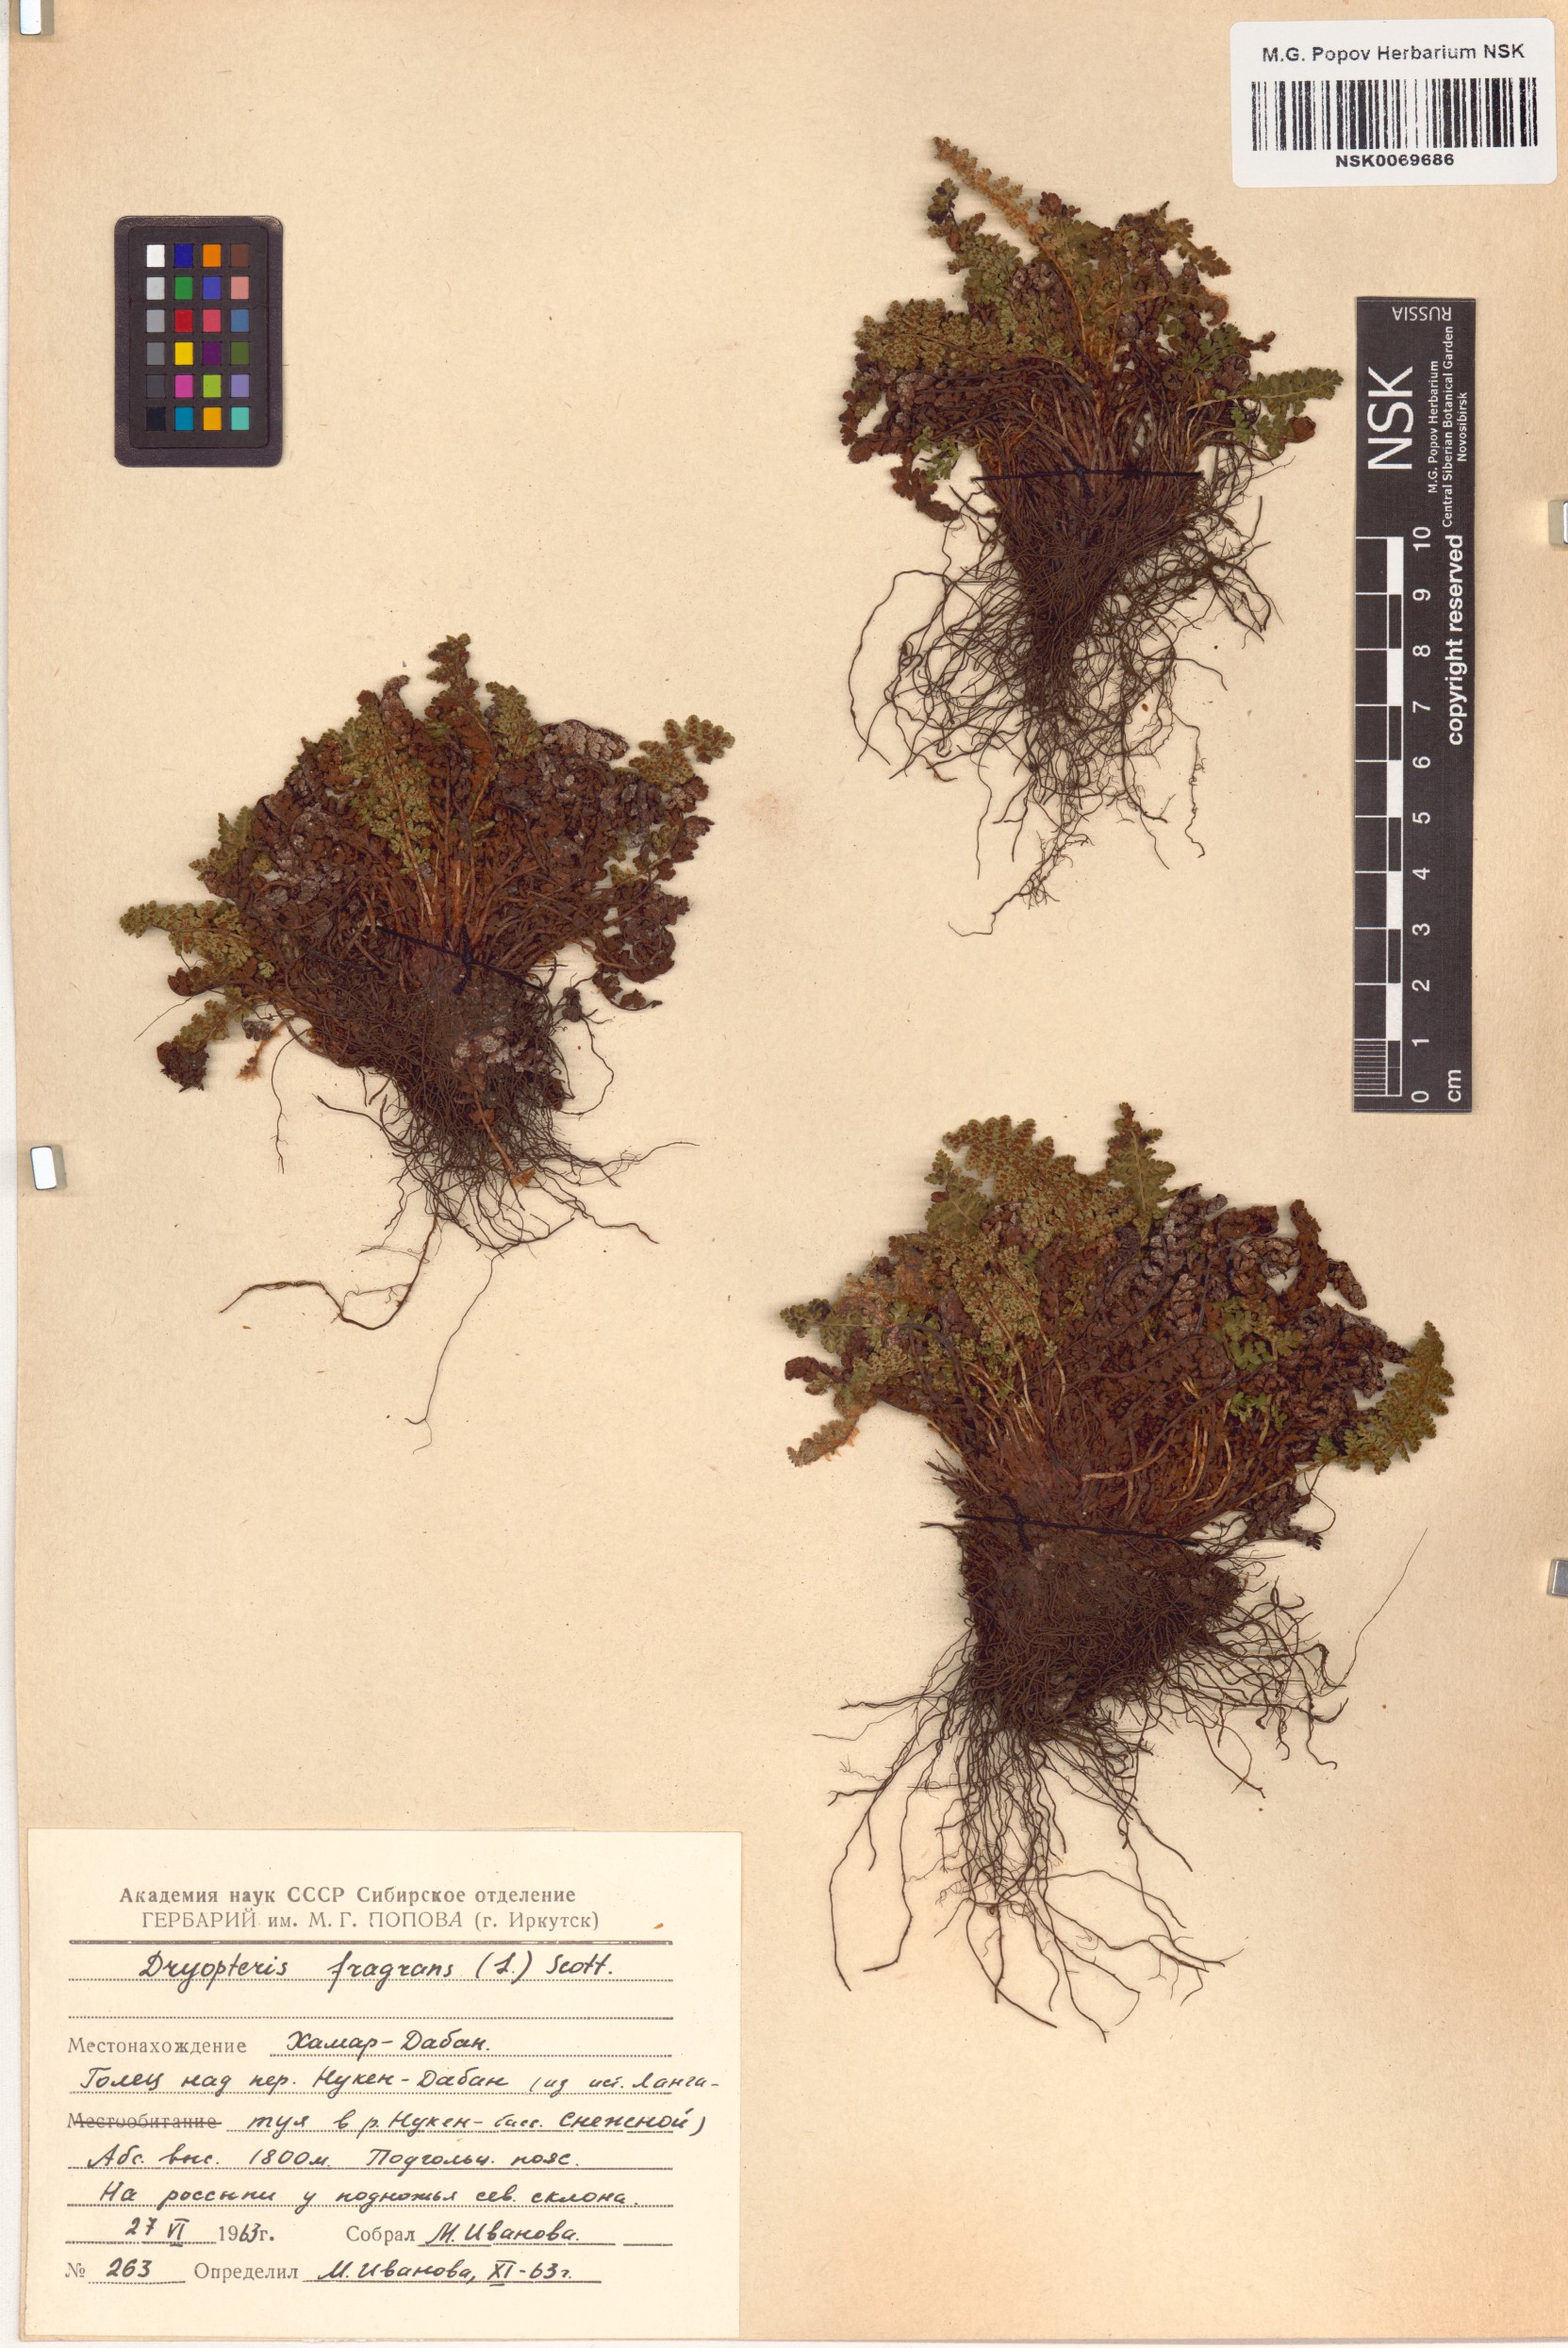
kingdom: Plantae
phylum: Tracheophyta
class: Polypodiopsida
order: Polypodiales
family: Dryopteridaceae
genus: Dryopteris
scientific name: Dryopteris fragrans
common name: Fragrant wood fern
